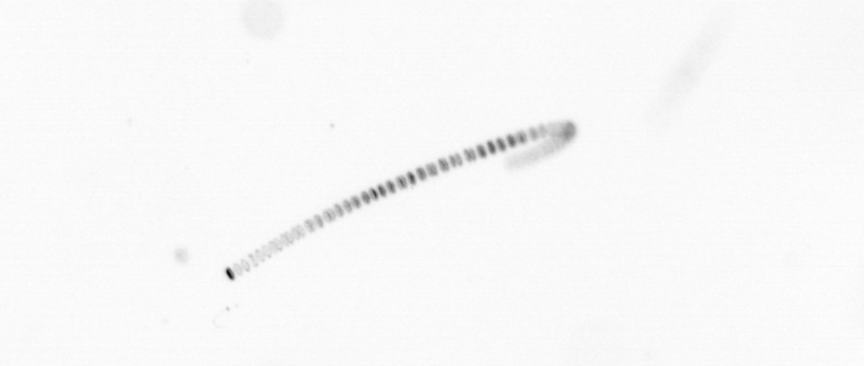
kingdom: Chromista
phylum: Ochrophyta
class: Bacillariophyceae
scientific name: Bacillariophyceae
